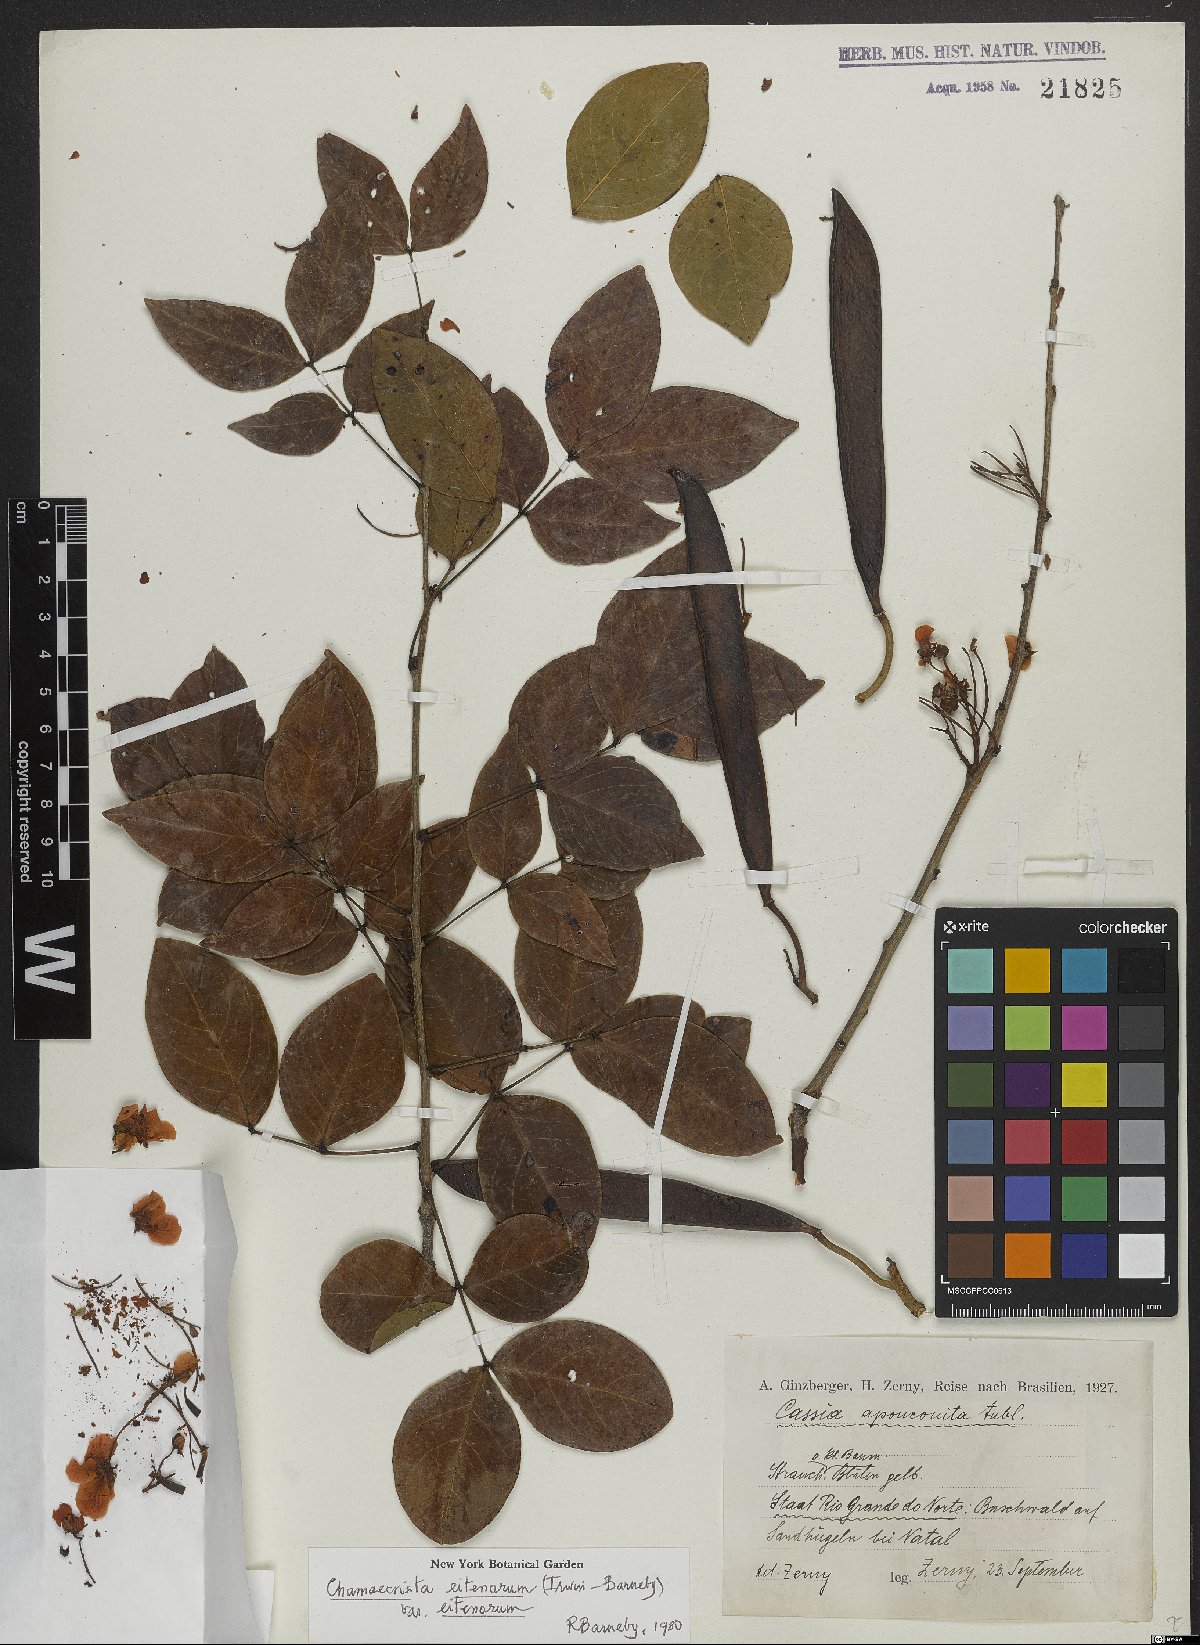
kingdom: Plantae
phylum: Tracheophyta
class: Magnoliopsida
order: Fabales
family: Fabaceae
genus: Chamaecrista
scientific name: Chamaecrista eitenorum
